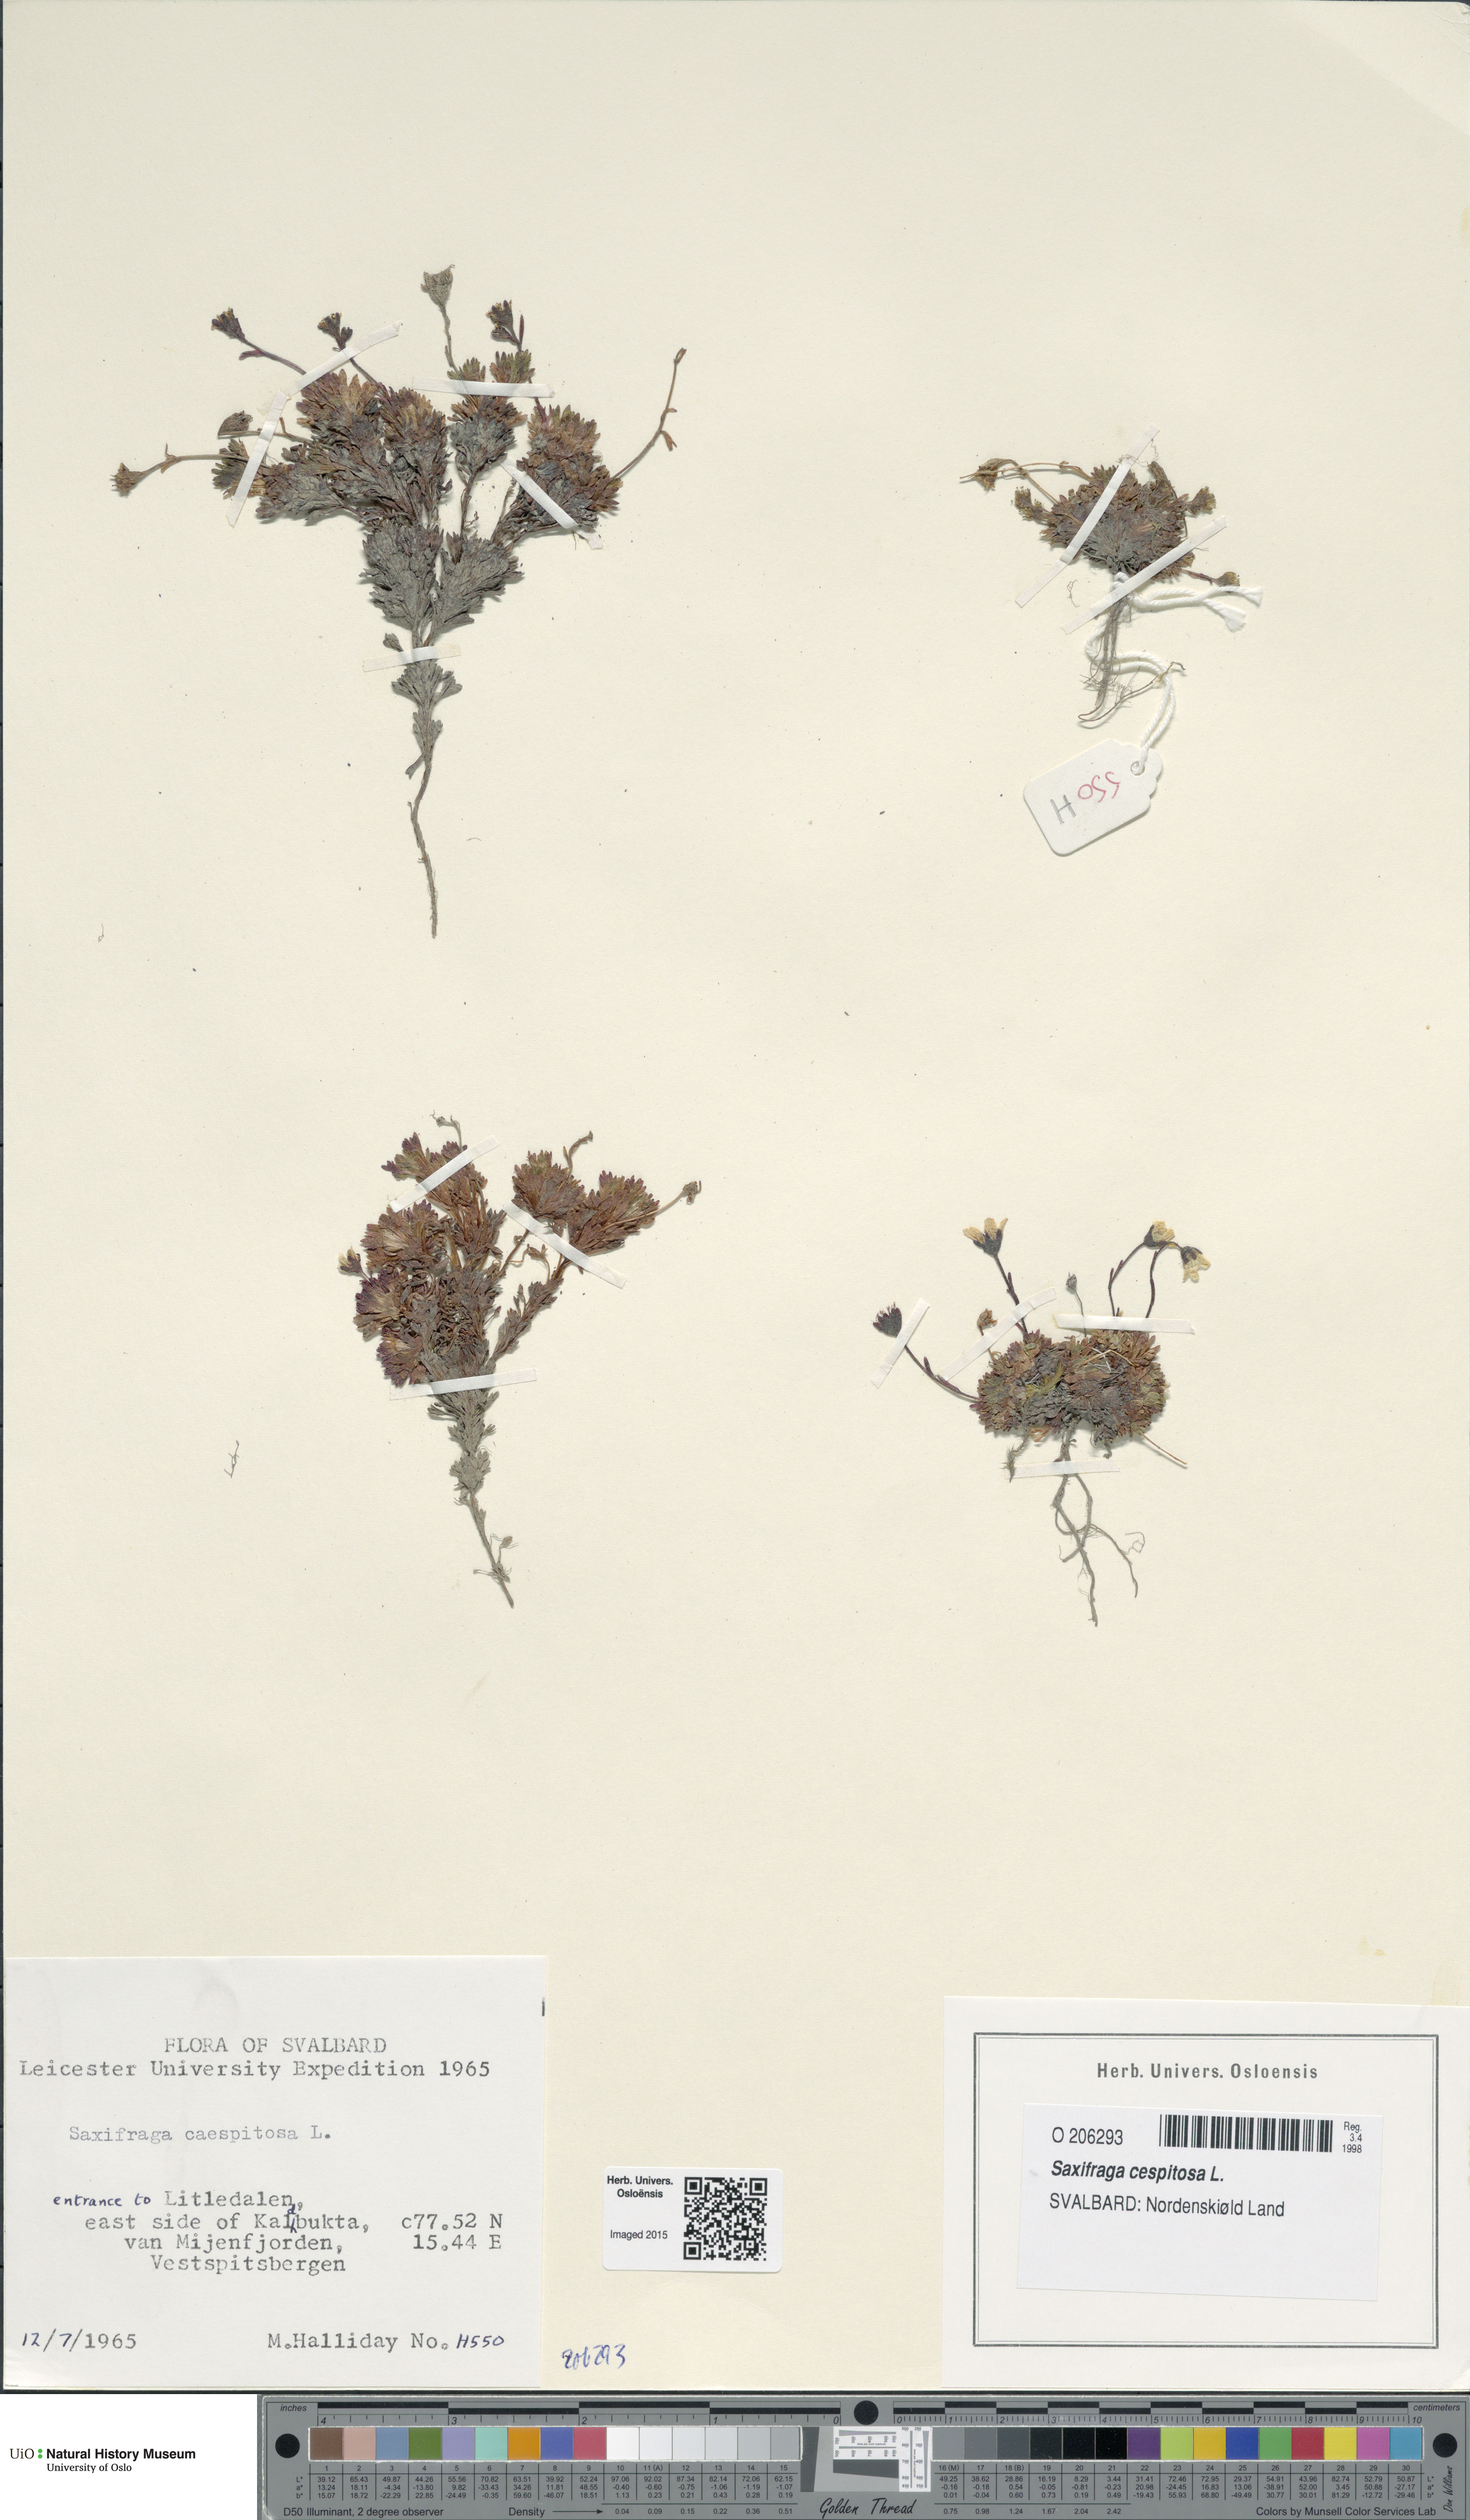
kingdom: Plantae
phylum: Tracheophyta
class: Magnoliopsida
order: Saxifragales
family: Saxifragaceae
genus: Saxifraga
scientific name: Saxifraga cespitosa
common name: Tufted saxifrage
